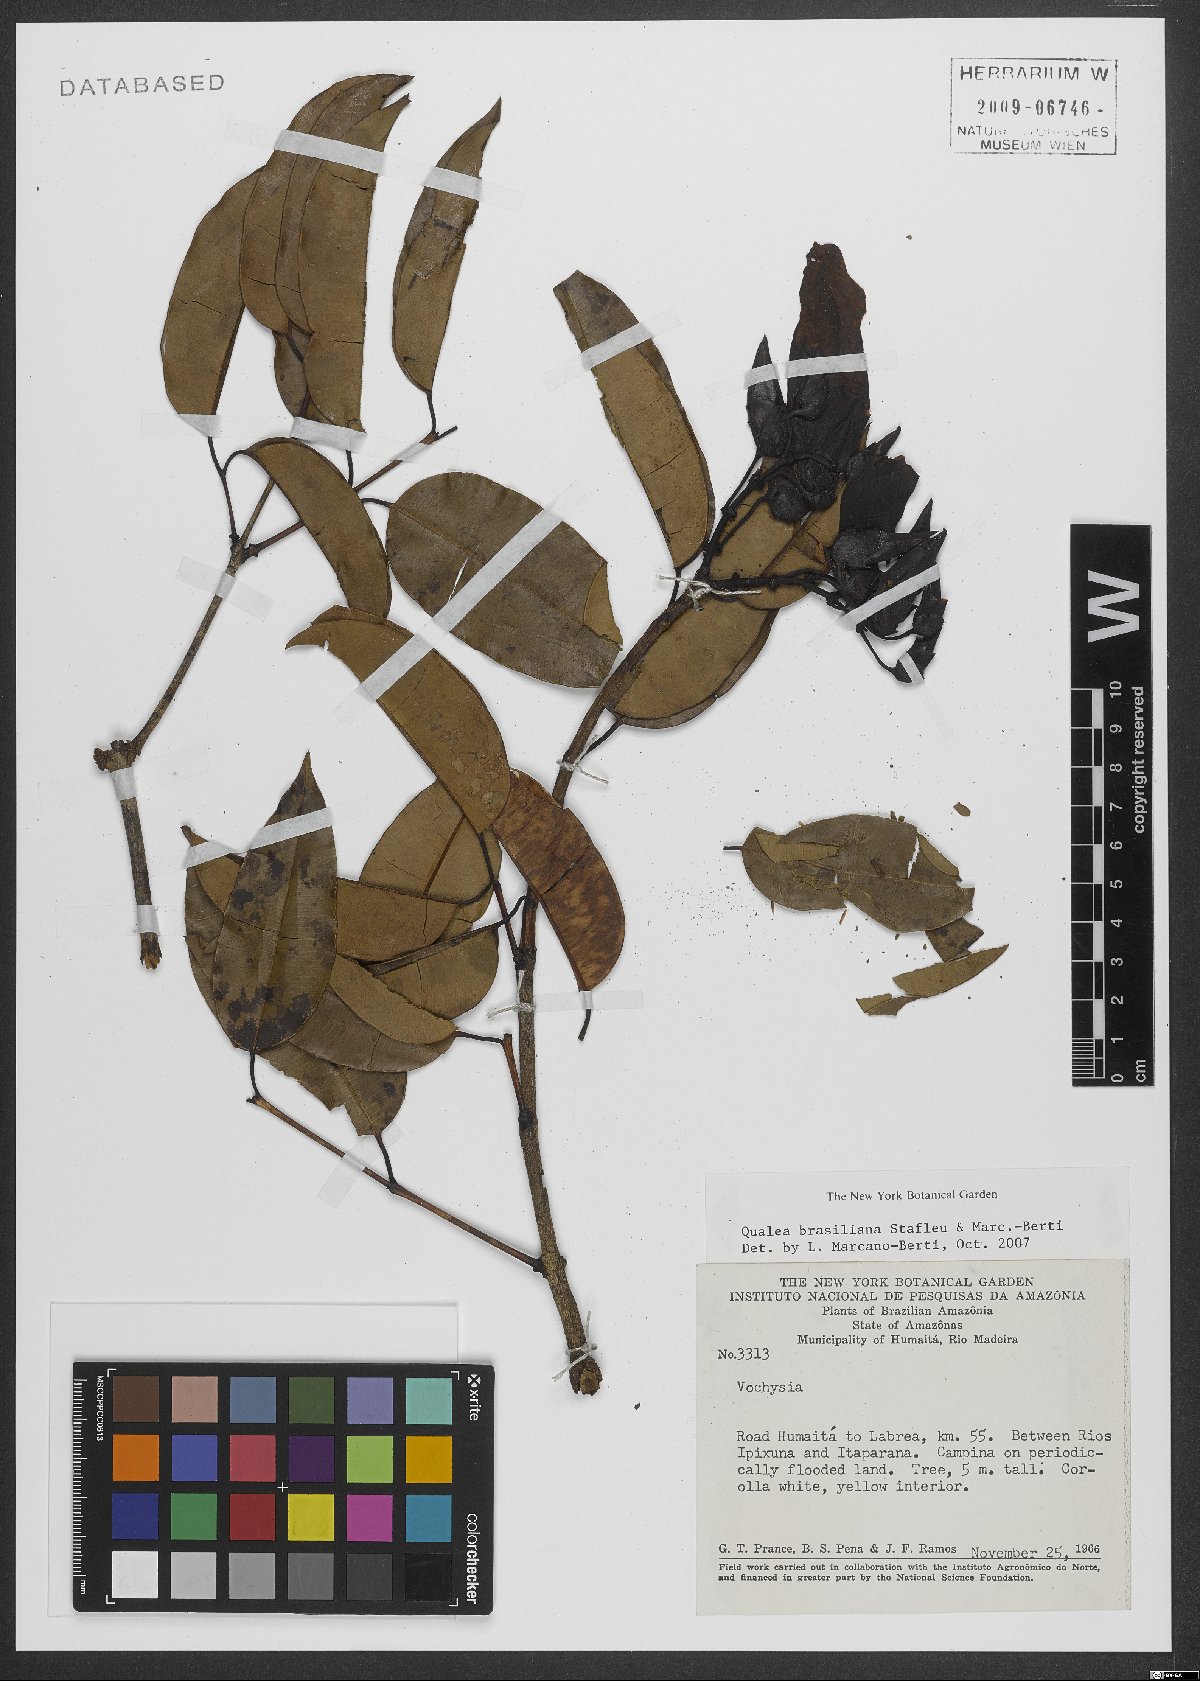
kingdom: Plantae
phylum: Tracheophyta
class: Magnoliopsida
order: Myrtales
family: Vochysiaceae
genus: Qualea
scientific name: Qualea brasiliana
